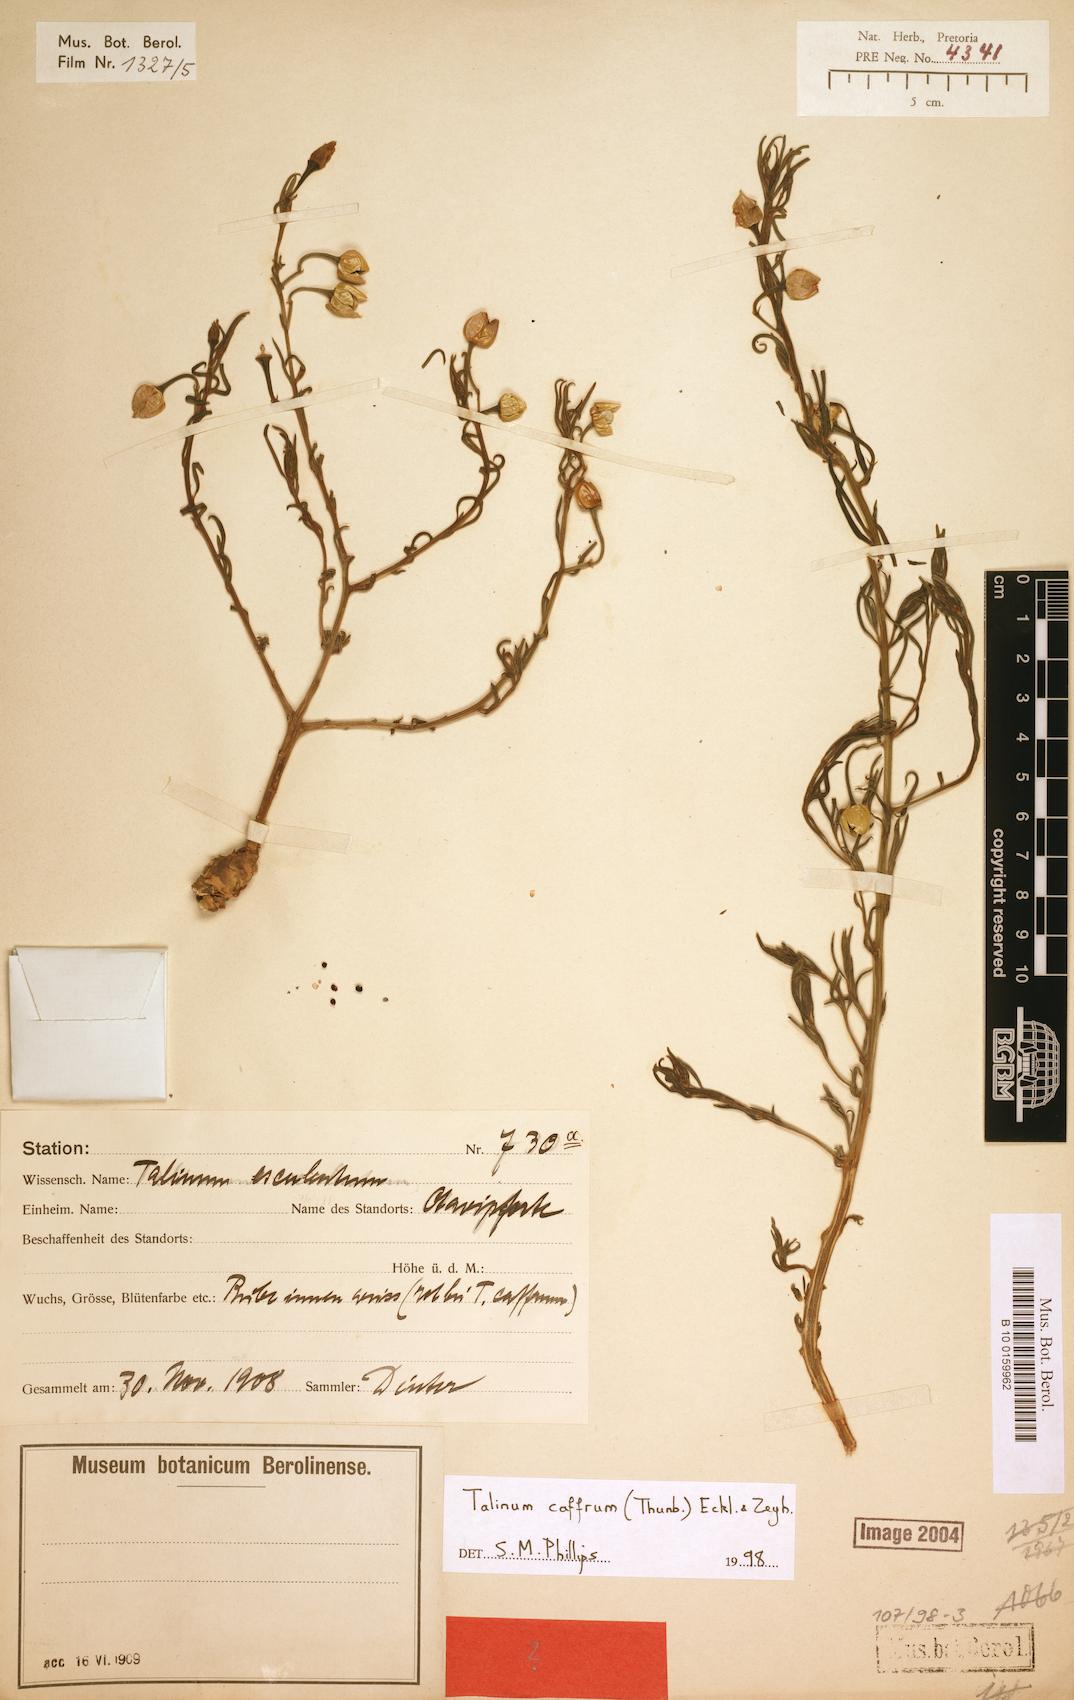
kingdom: Plantae
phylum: Tracheophyta
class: Magnoliopsida
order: Caryophyllales
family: Talinaceae
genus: Talinum
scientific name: Talinum caffrum
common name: Flameflower
